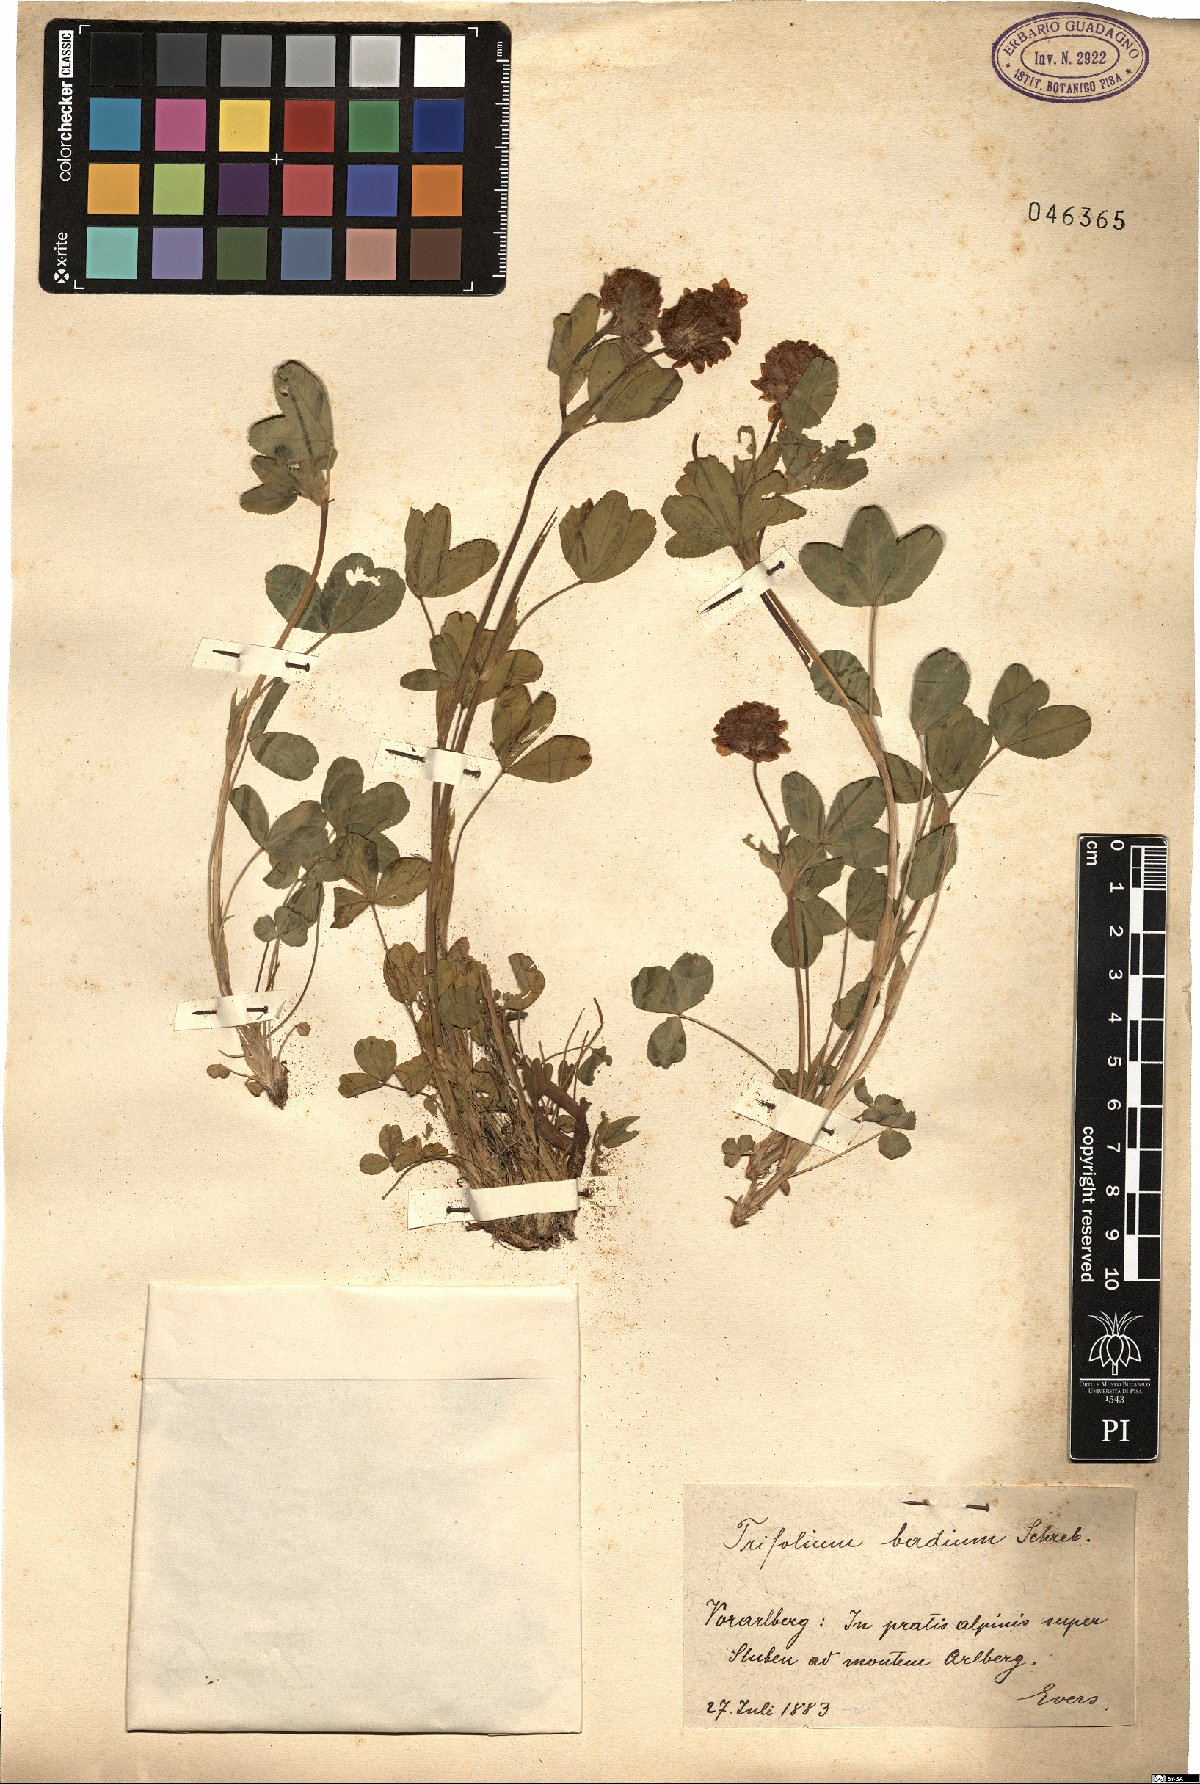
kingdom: Plantae
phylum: Tracheophyta
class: Magnoliopsida
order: Fabales
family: Fabaceae
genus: Trifolium
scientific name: Trifolium badium
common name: Brown clover
